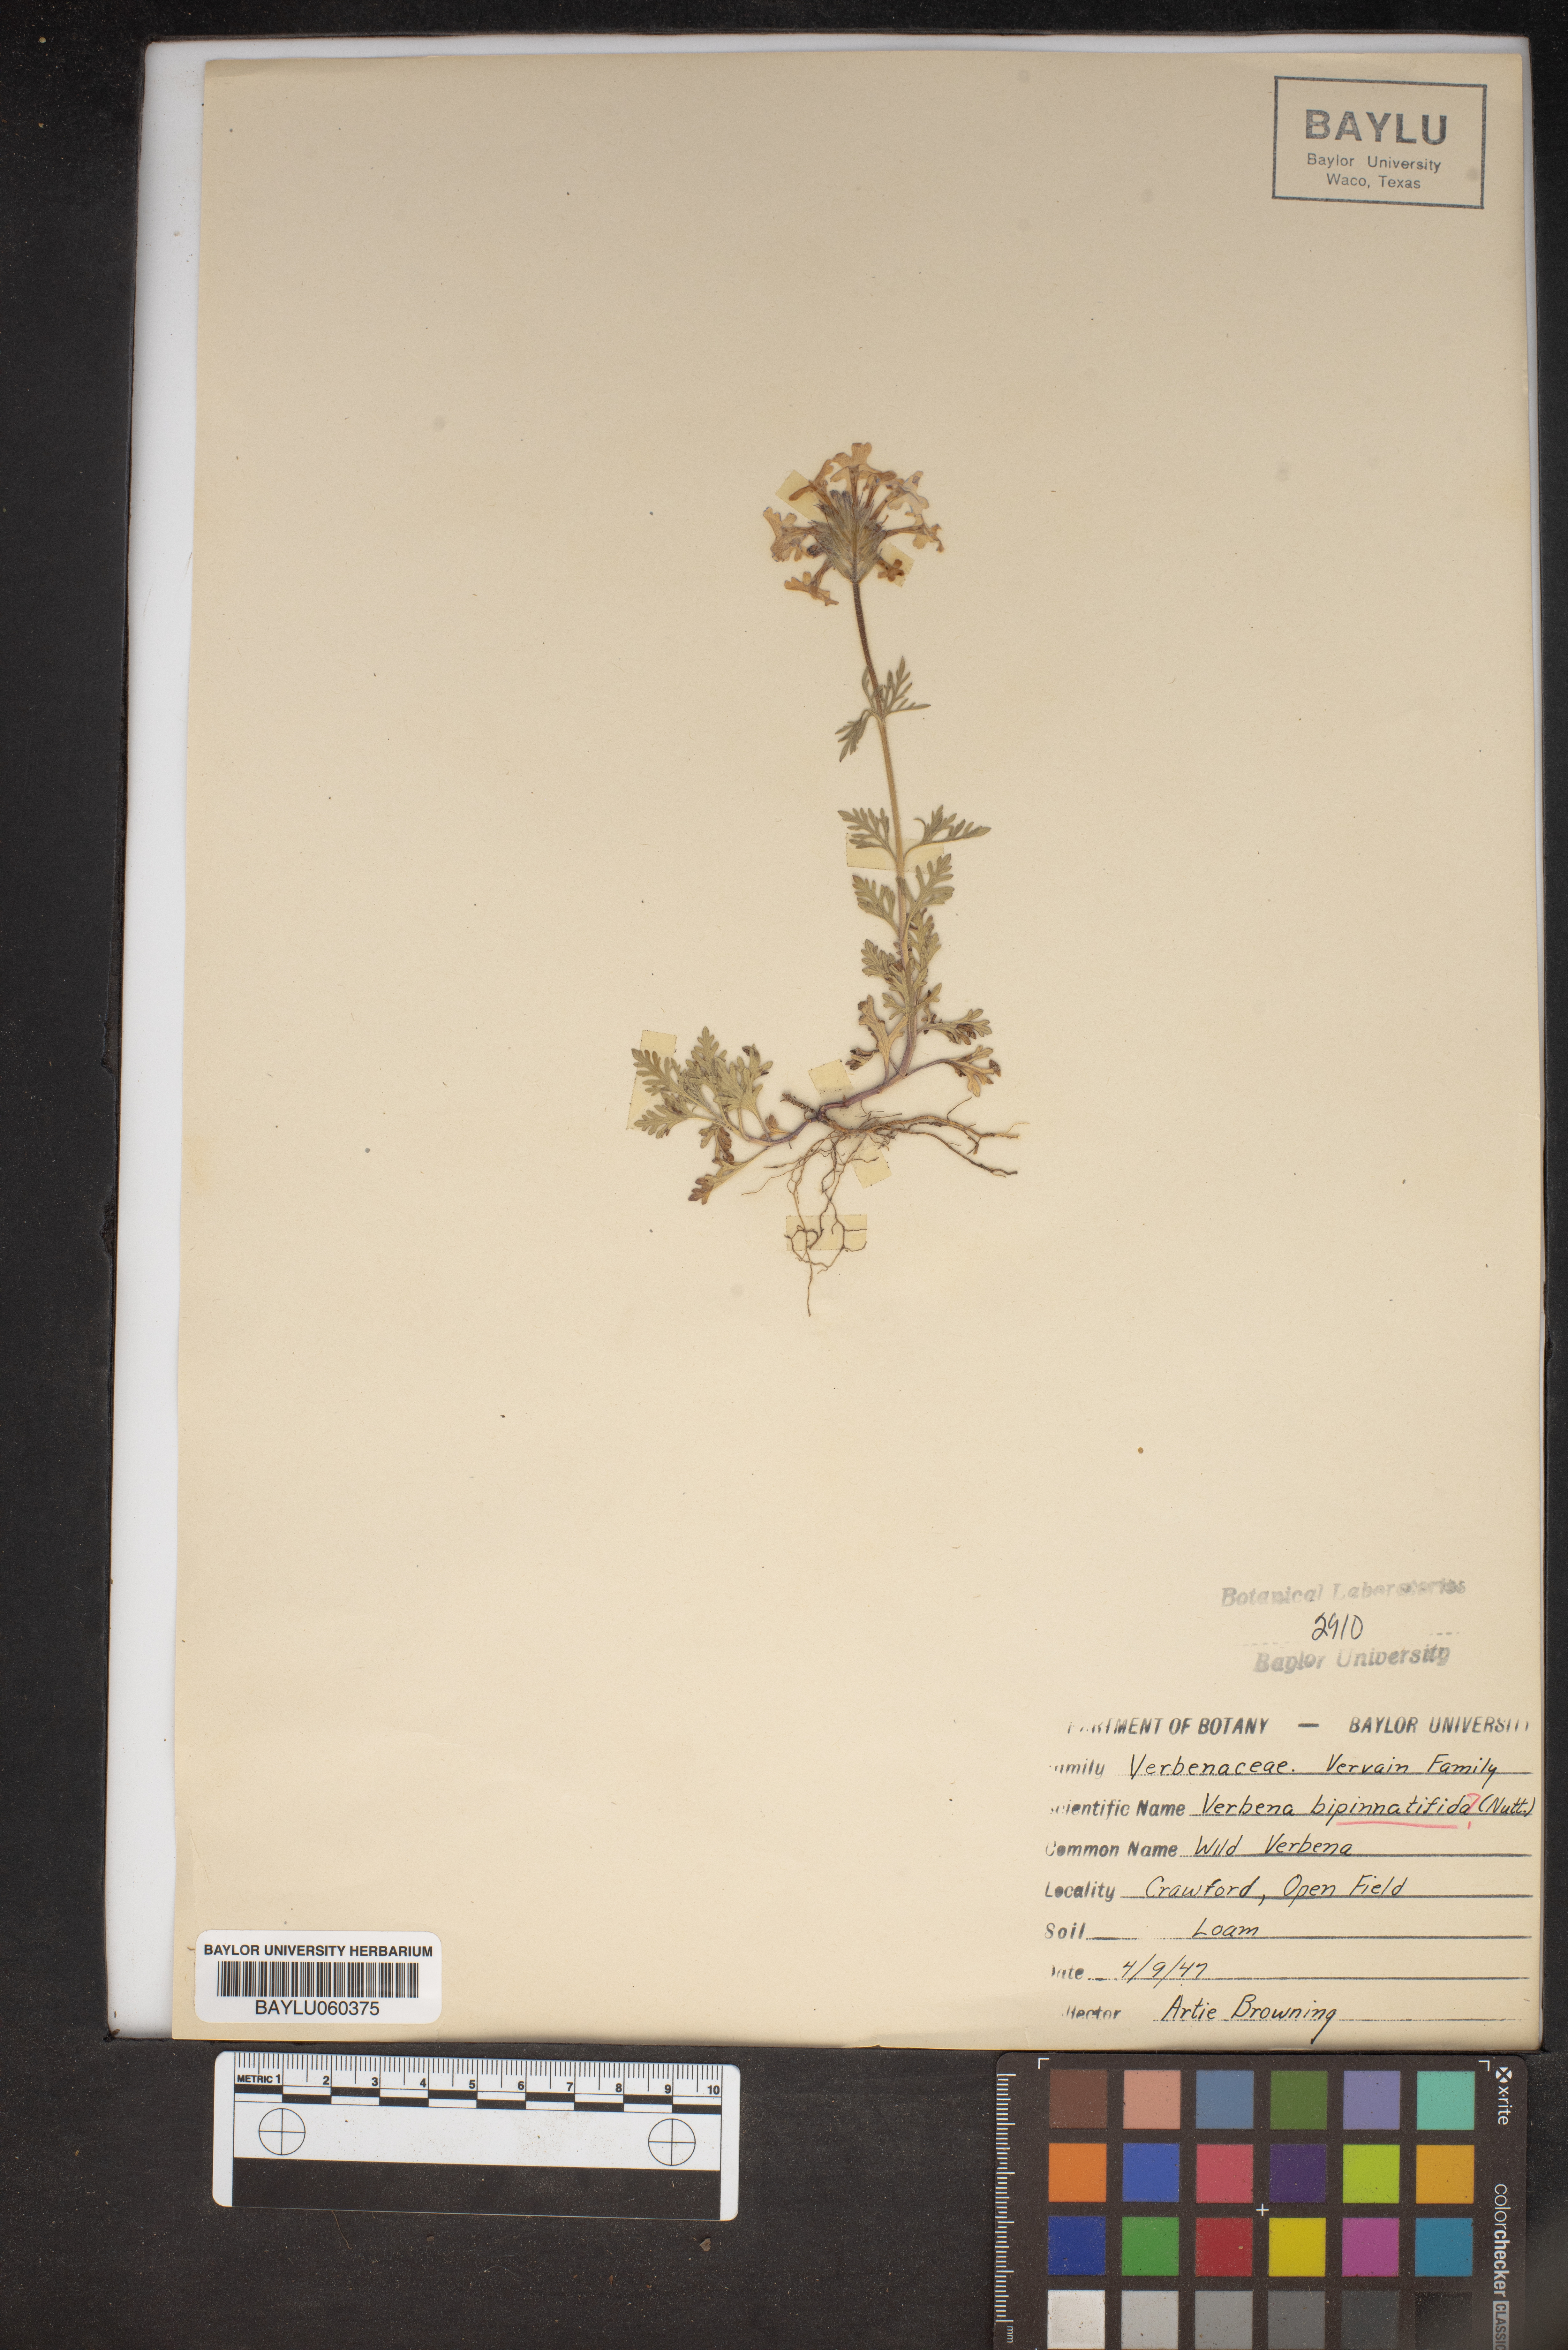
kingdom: Plantae
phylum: Tracheophyta
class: Magnoliopsida
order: Lamiales
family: Verbenaceae
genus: Verbena
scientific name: Verbena bipinnatifida
